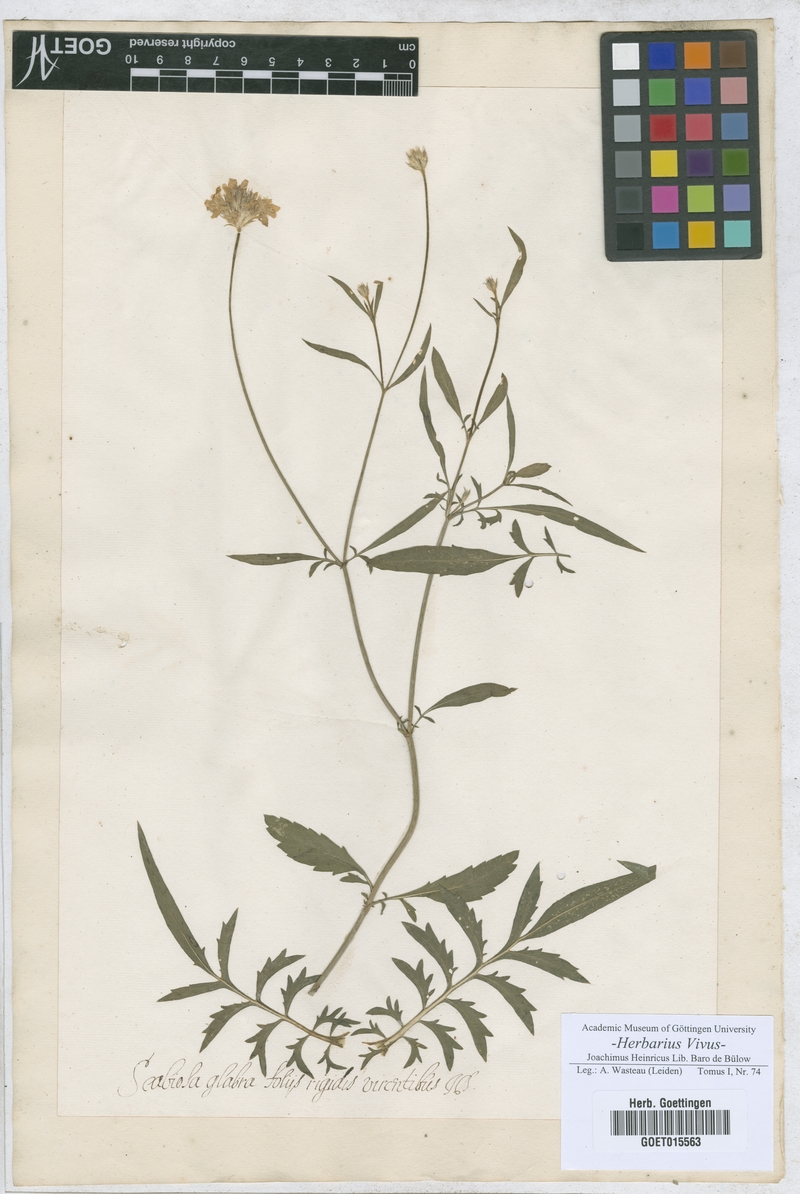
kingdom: Plantae
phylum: Tracheophyta
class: Magnoliopsida
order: Dipsacales
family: Caprifoliaceae
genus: Scabiosa
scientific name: Scabiosa
